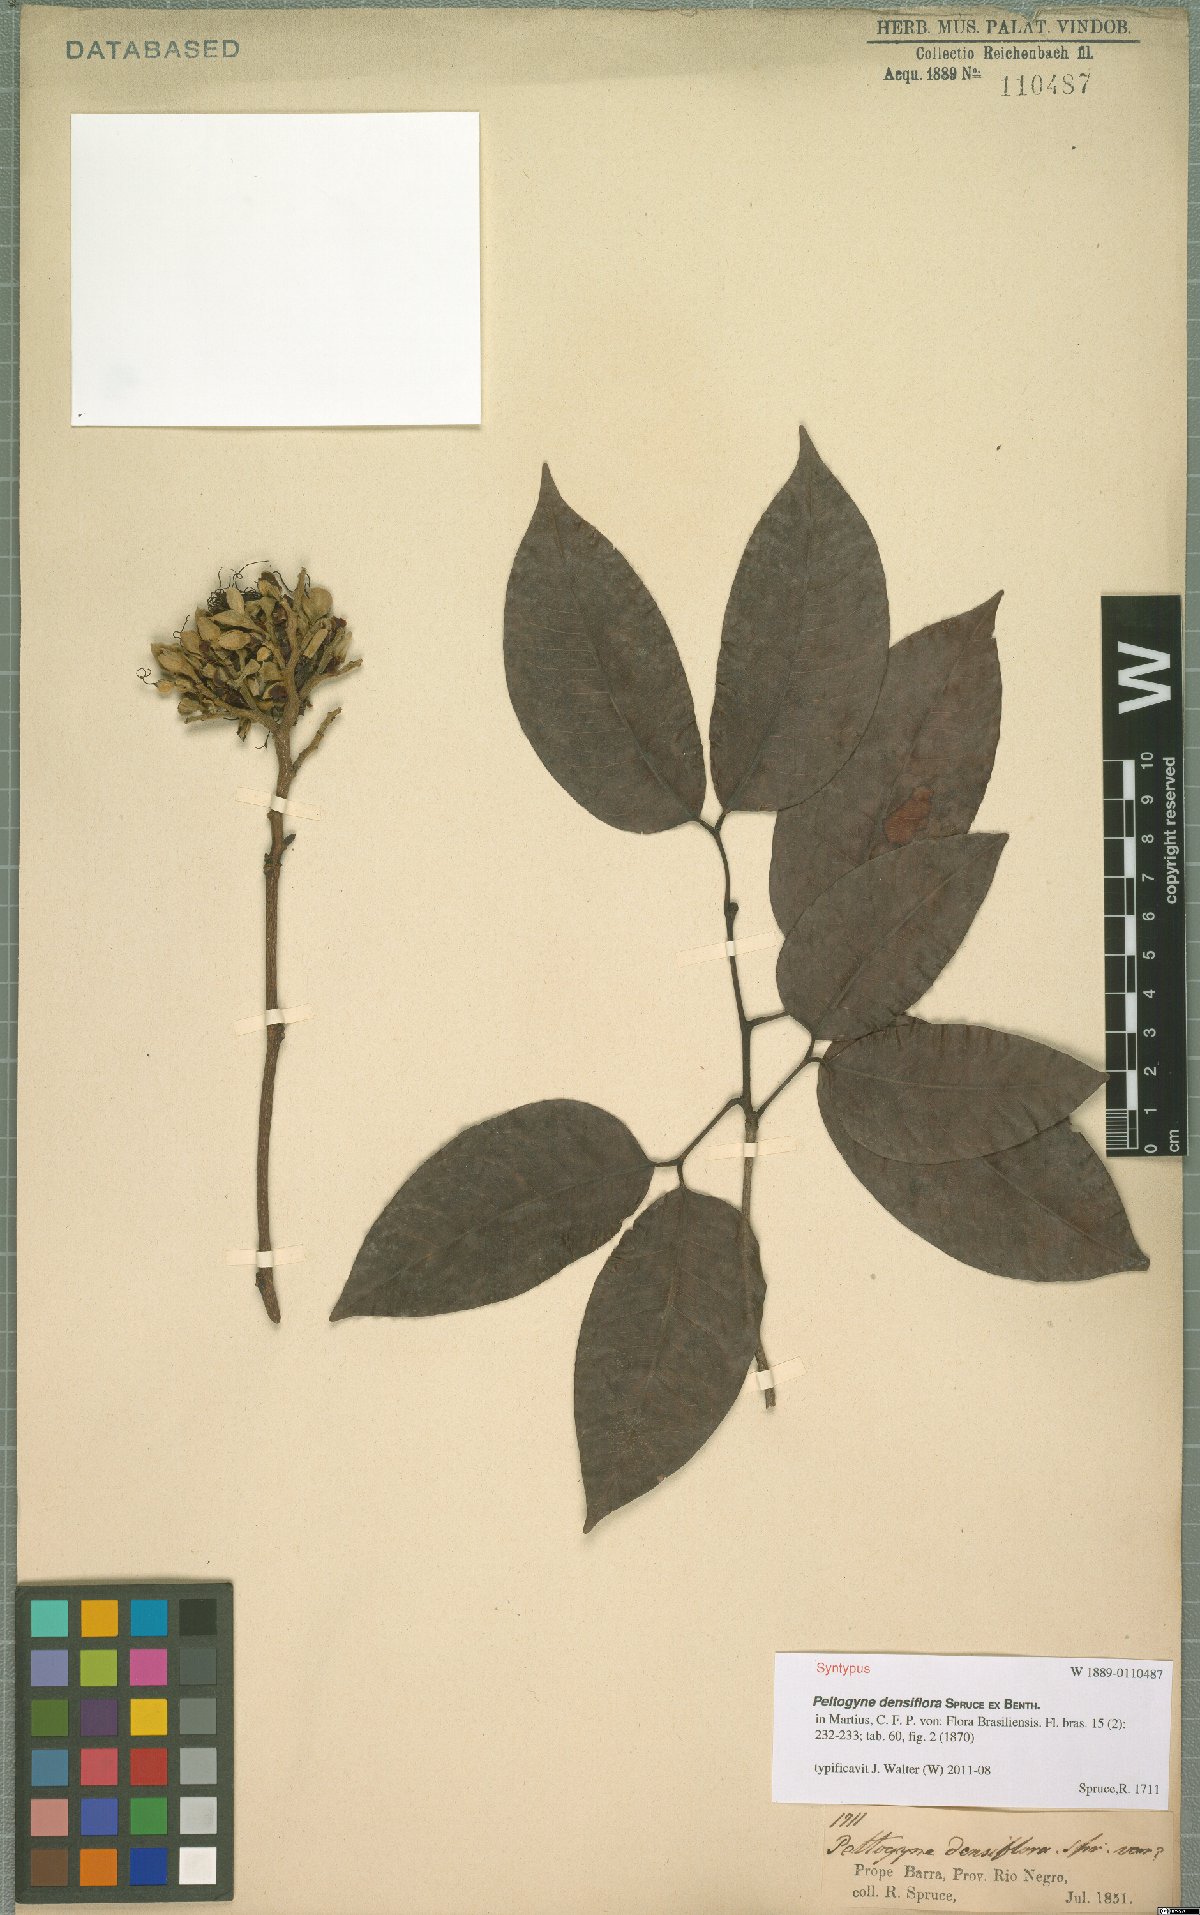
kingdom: Plantae
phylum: Tracheophyta
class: Magnoliopsida
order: Fabales
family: Fabaceae
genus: Peltogyne
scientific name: Peltogyne venosa
